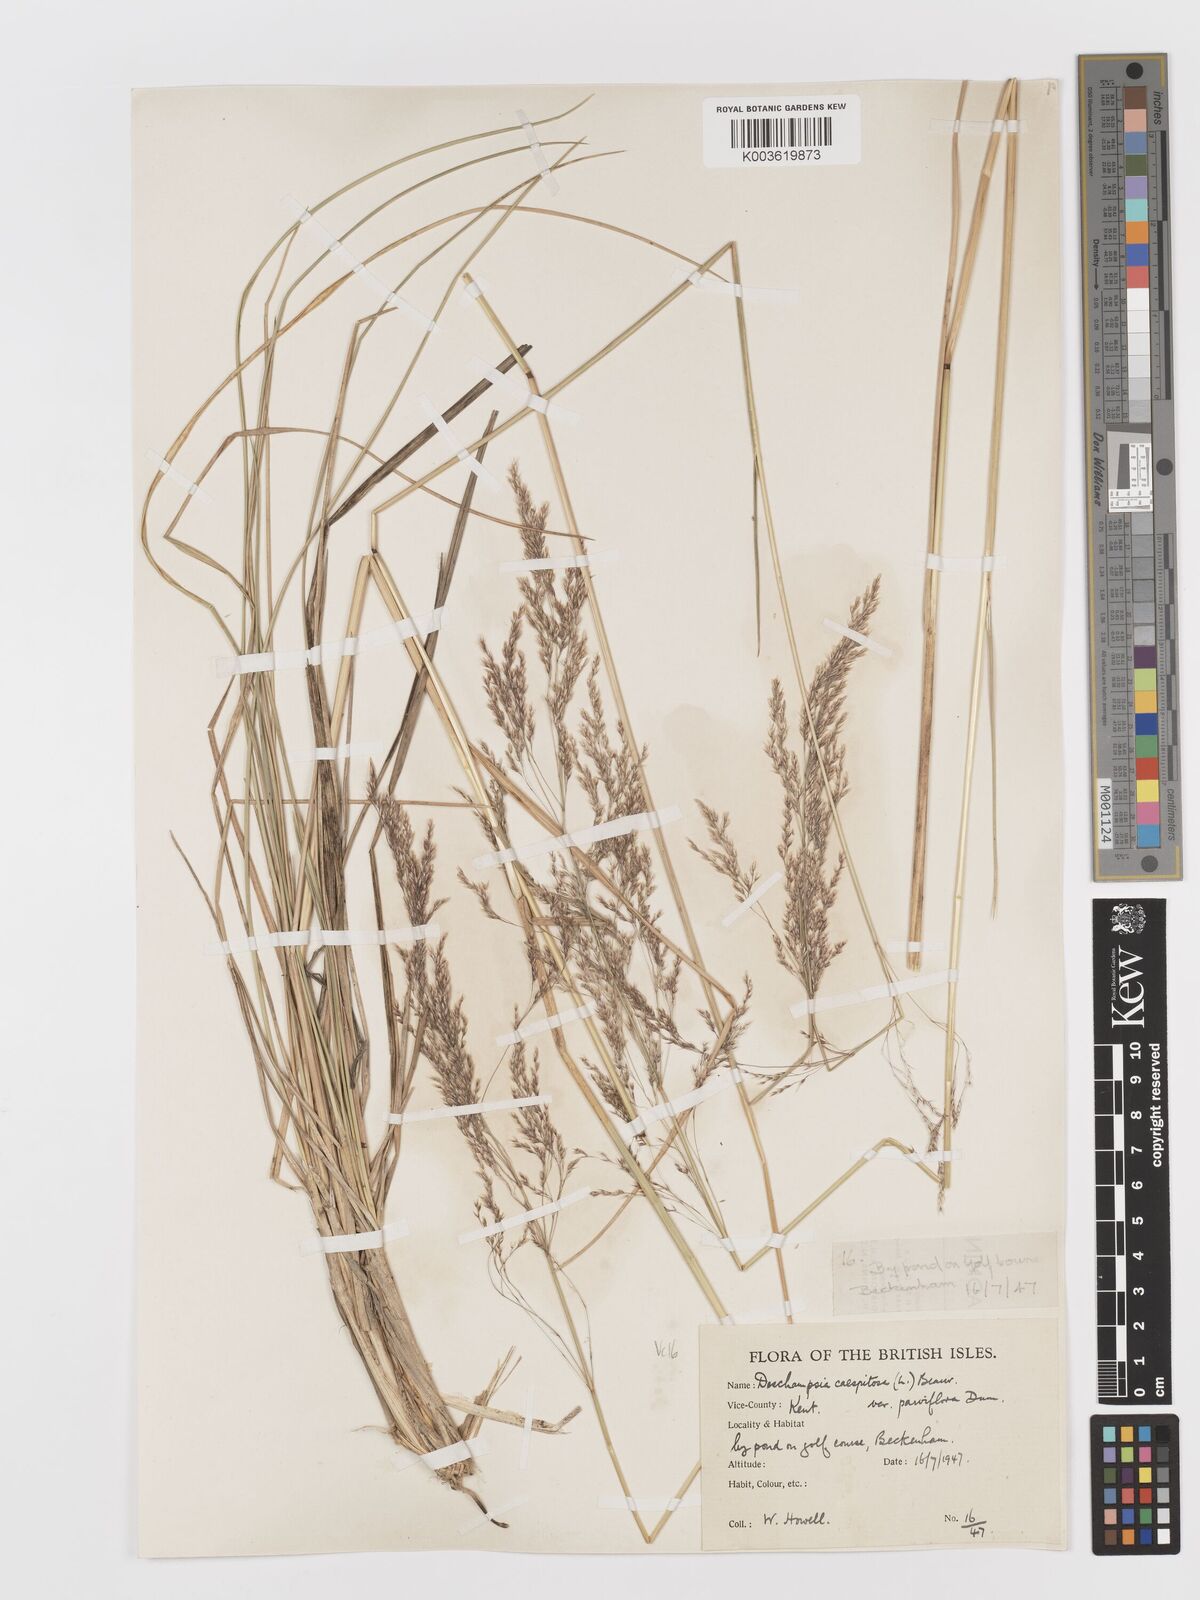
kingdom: Plantae
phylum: Tracheophyta
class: Liliopsida
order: Poales
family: Poaceae
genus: Deschampsia
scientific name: Deschampsia cespitosa
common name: Tufted hair-grass
